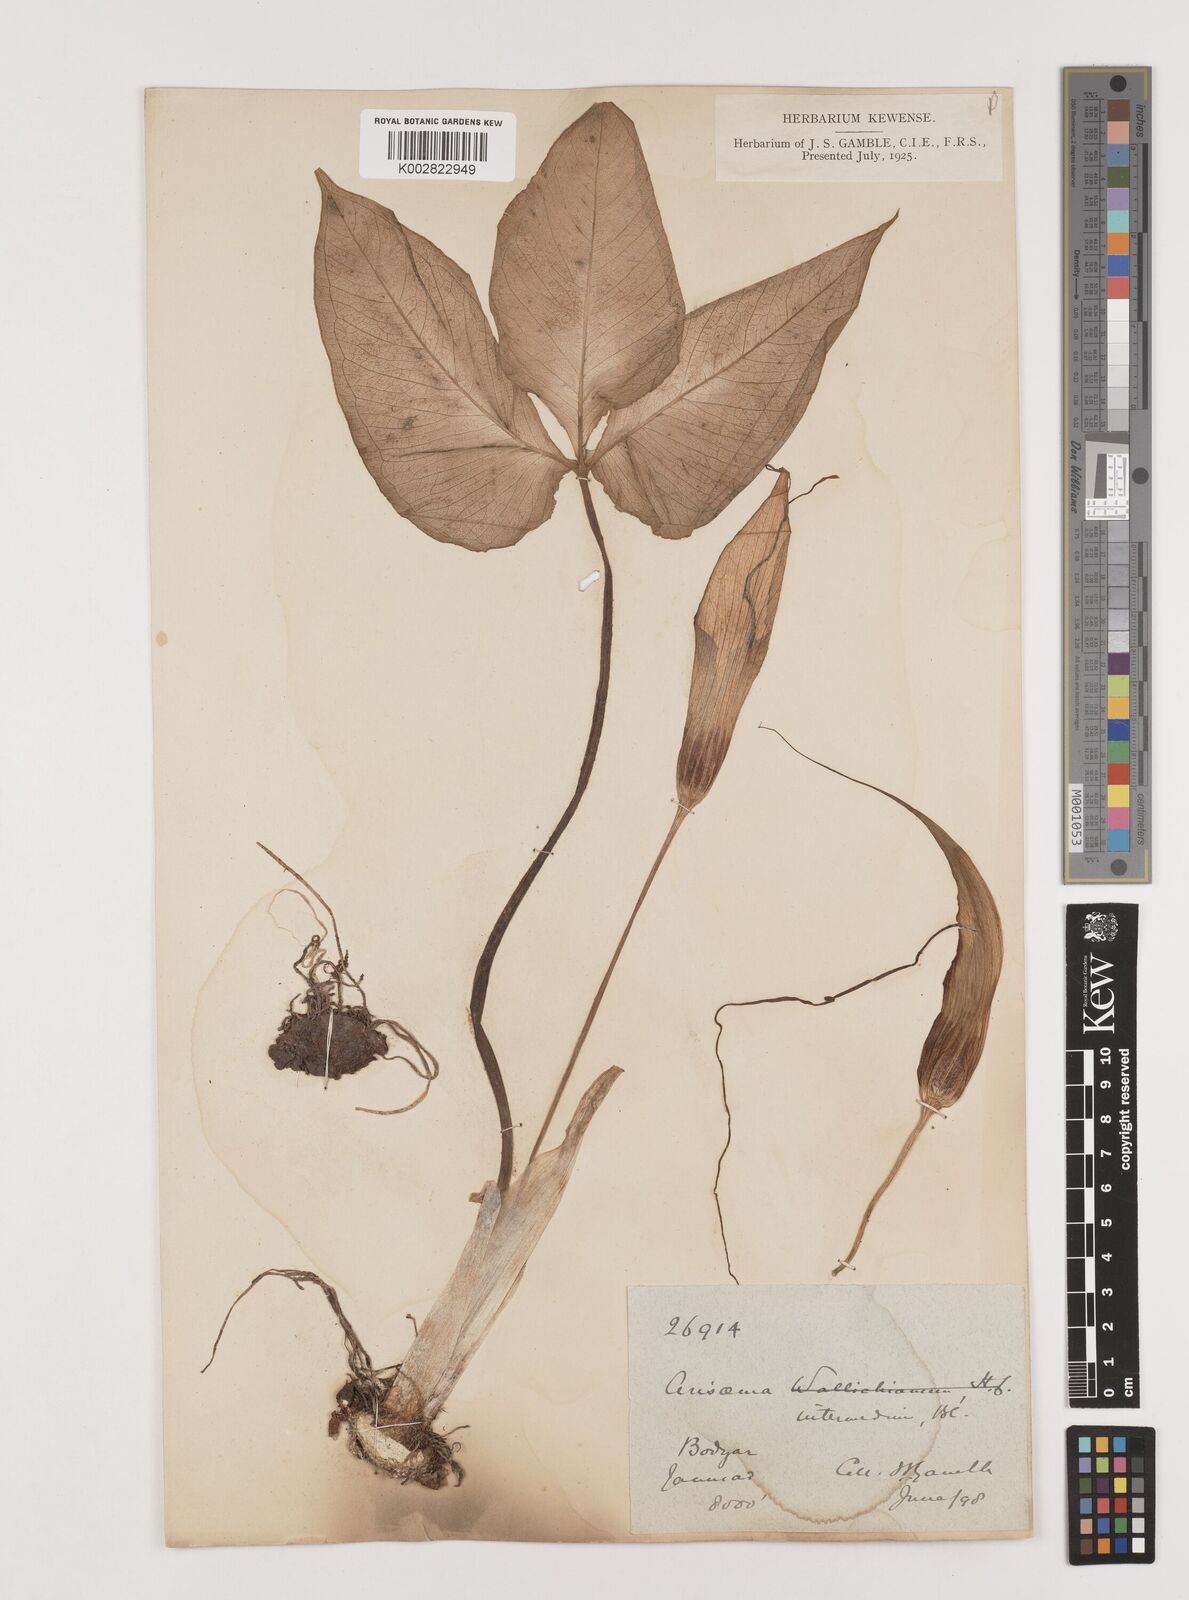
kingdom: Plantae
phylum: Tracheophyta
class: Liliopsida
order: Alismatales
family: Araceae
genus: Arisaema
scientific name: Arisaema intermedium
